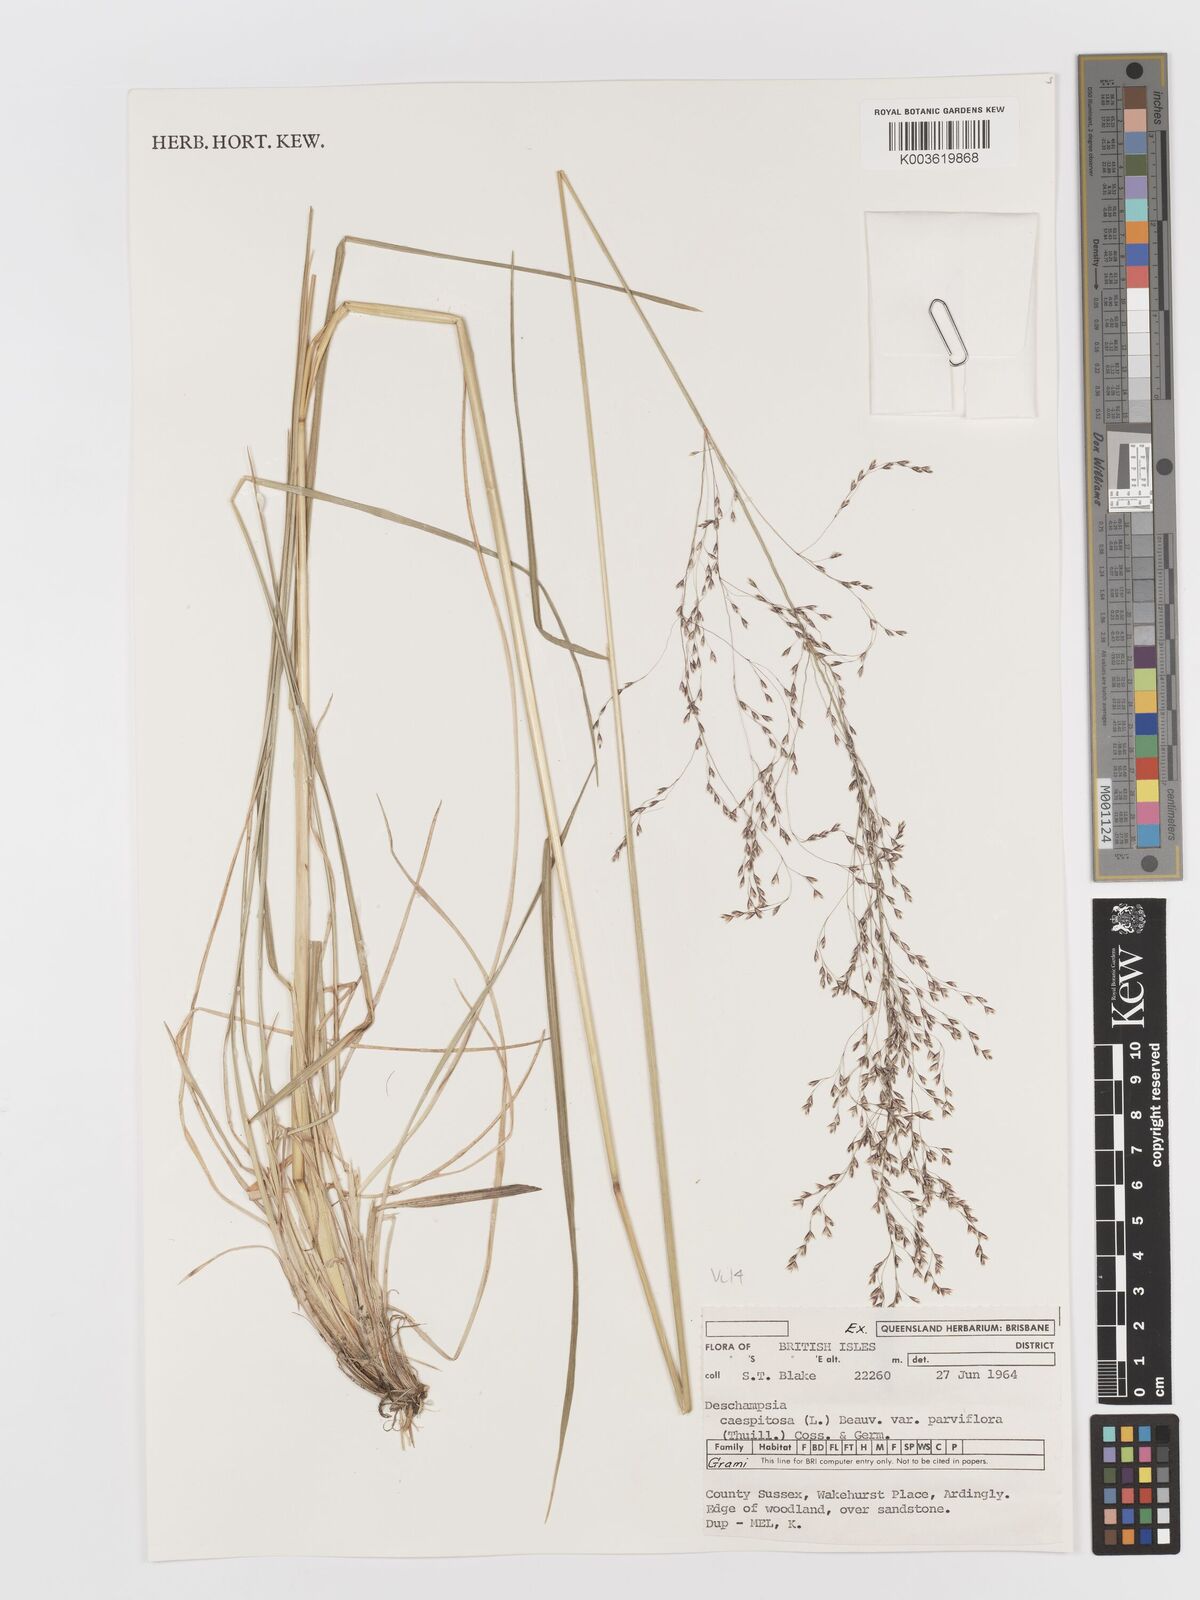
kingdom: Plantae
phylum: Tracheophyta
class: Liliopsida
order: Poales
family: Poaceae
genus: Deschampsia
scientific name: Deschampsia cespitosa
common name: Tufted hair-grass
